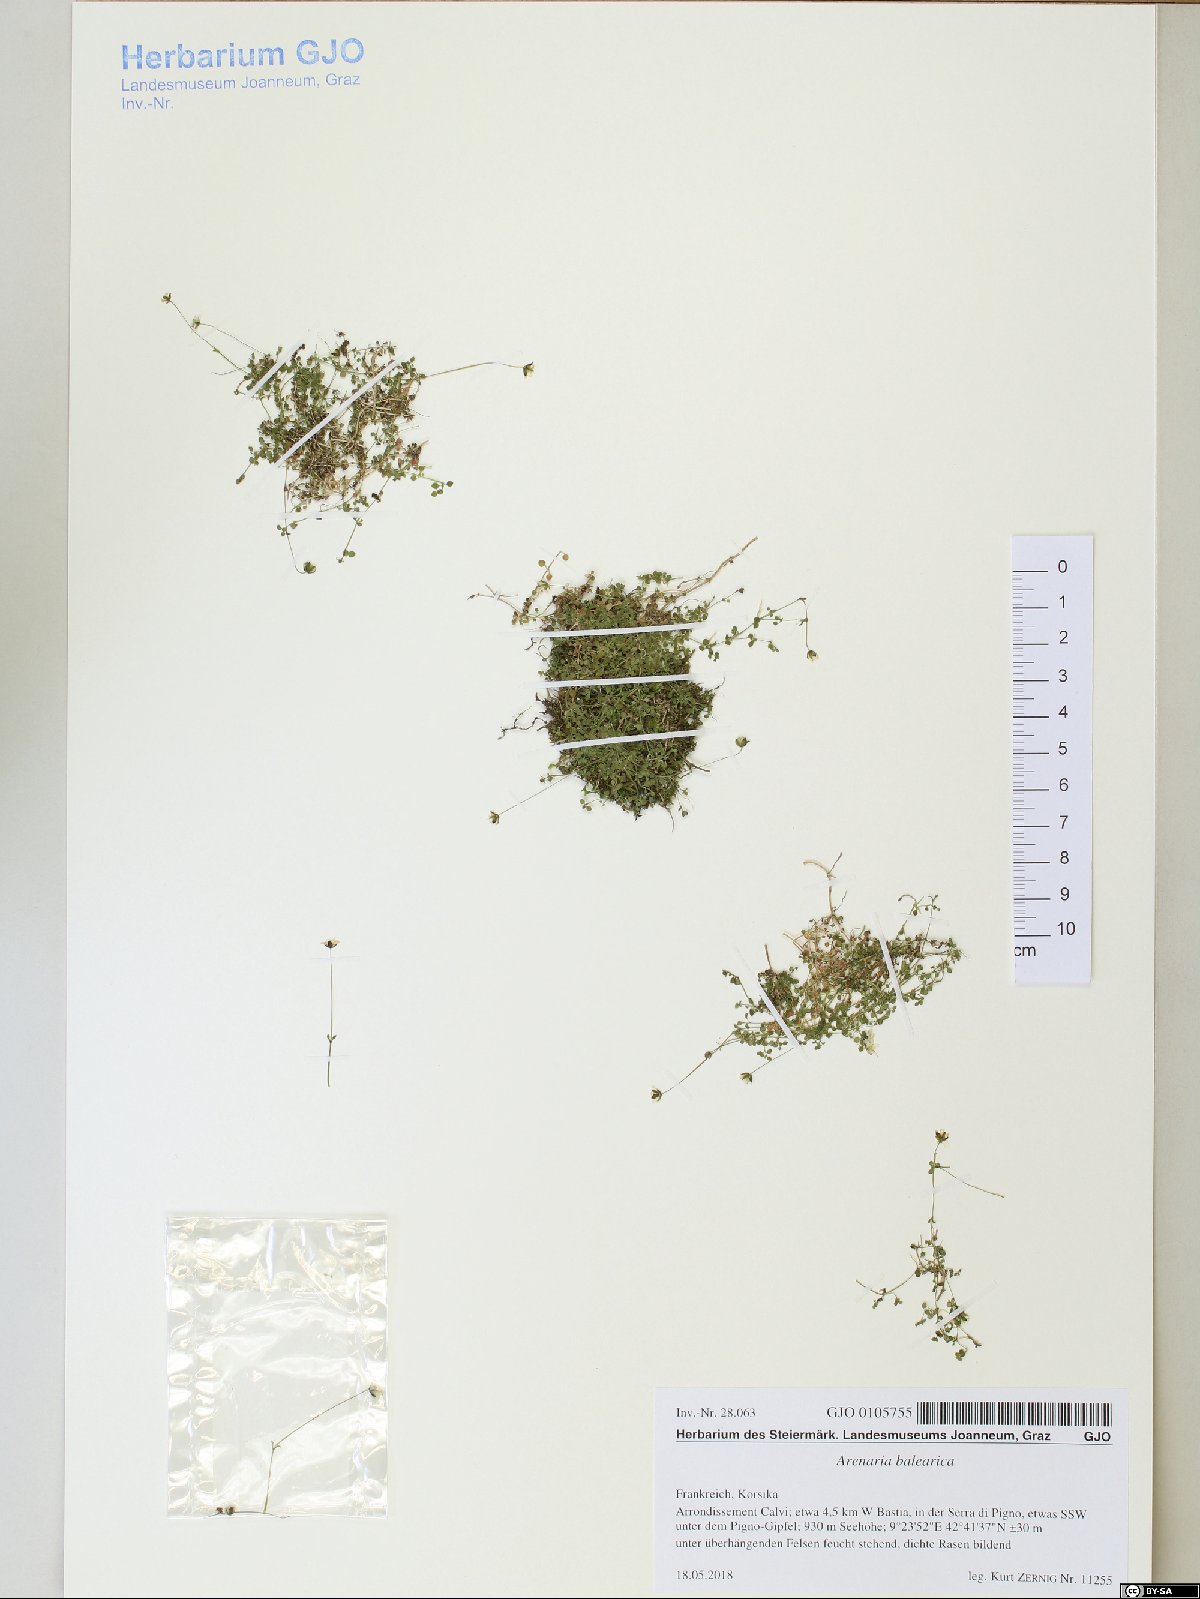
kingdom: Plantae
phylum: Tracheophyta
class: Magnoliopsida
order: Caryophyllales
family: Caryophyllaceae
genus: Arenaria
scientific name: Arenaria balearica
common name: Mossy sandwort
